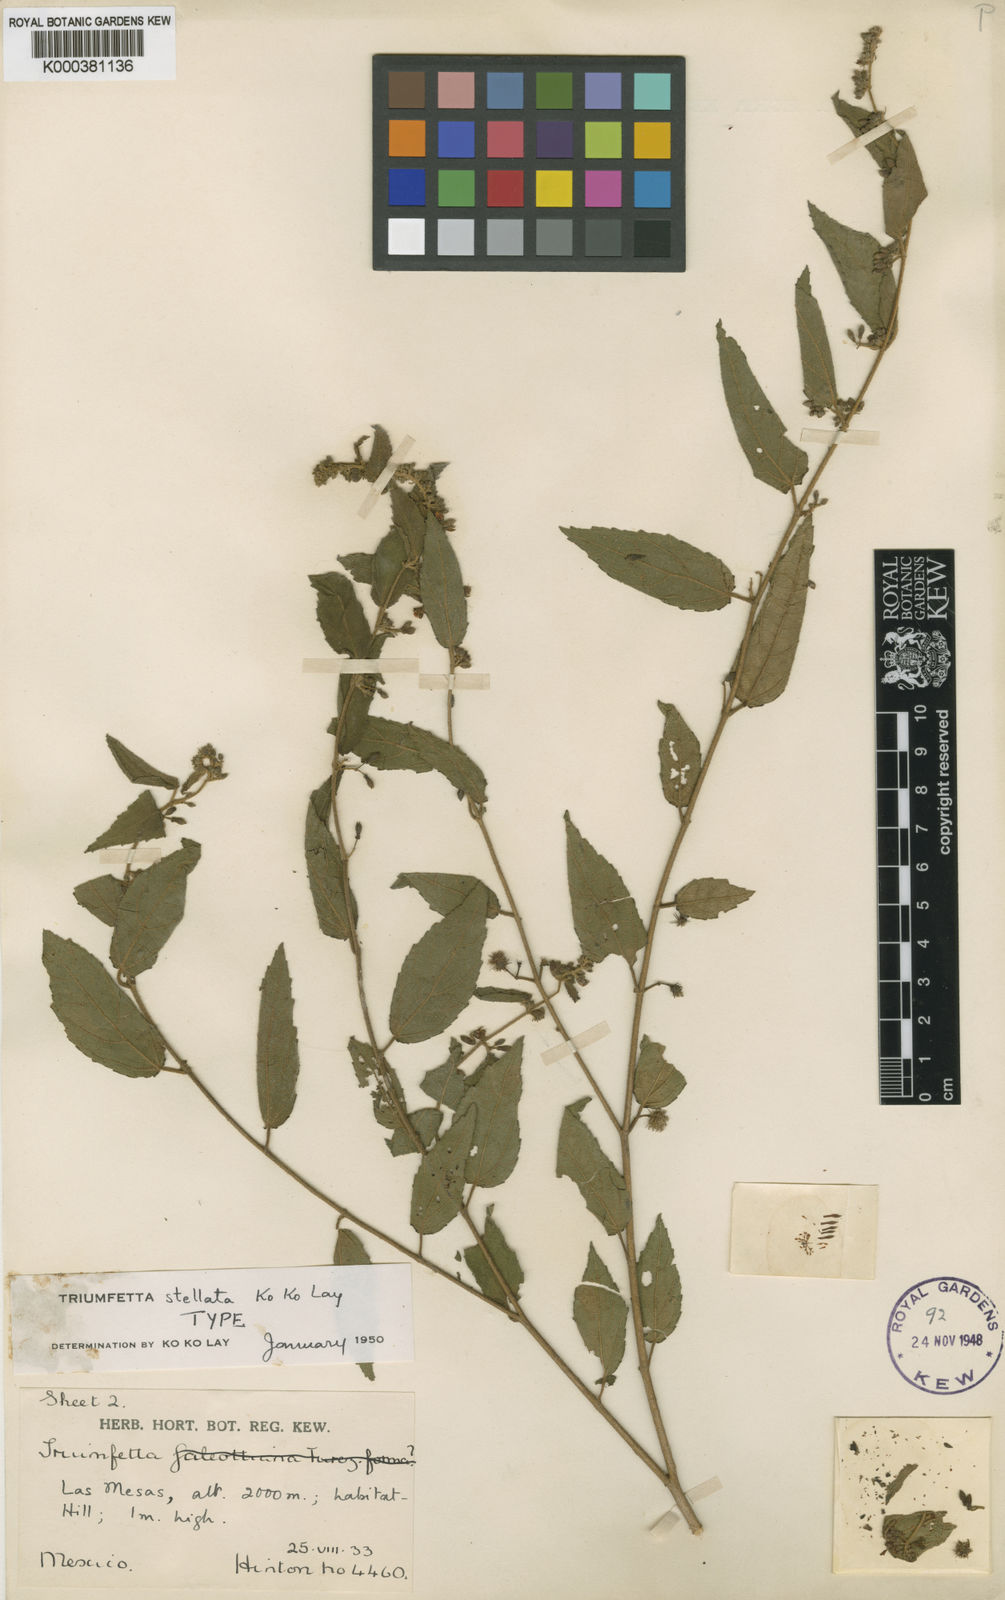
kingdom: Plantae
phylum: Tracheophyta
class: Magnoliopsida
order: Malvales
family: Malvaceae
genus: Triumfetta
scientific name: Triumfetta stellata
